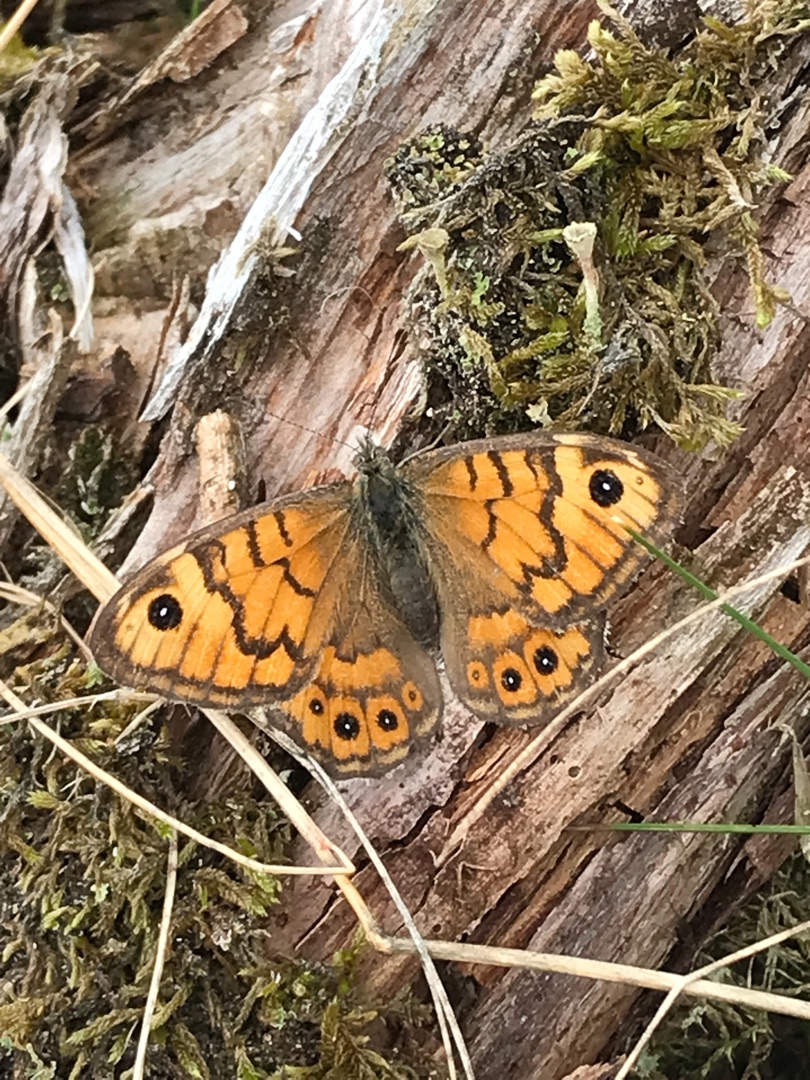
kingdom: Animalia
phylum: Arthropoda
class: Insecta
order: Lepidoptera
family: Nymphalidae
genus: Pararge
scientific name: Pararge Lasiommata megera
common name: Vejrandøje
